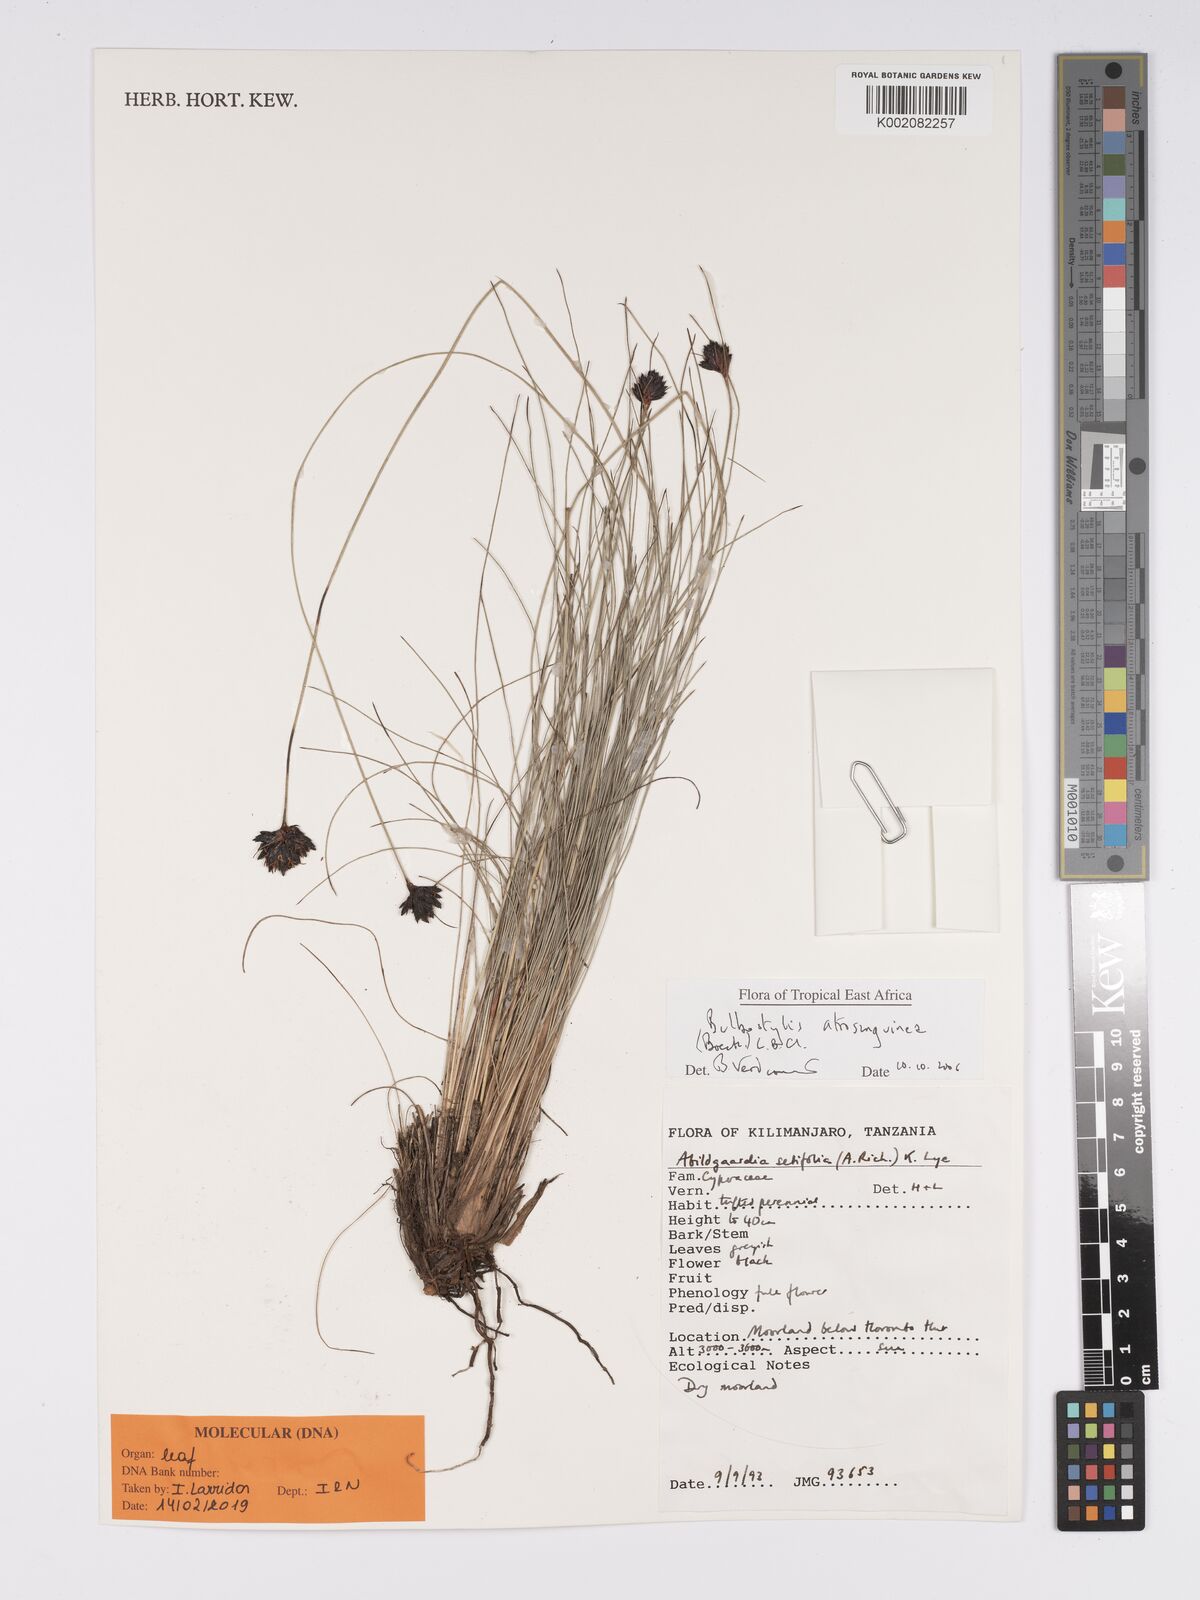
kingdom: Plantae
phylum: Tracheophyta
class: Liliopsida
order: Poales
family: Cyperaceae
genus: Bulbostylis
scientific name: Bulbostylis atrosanguinea
